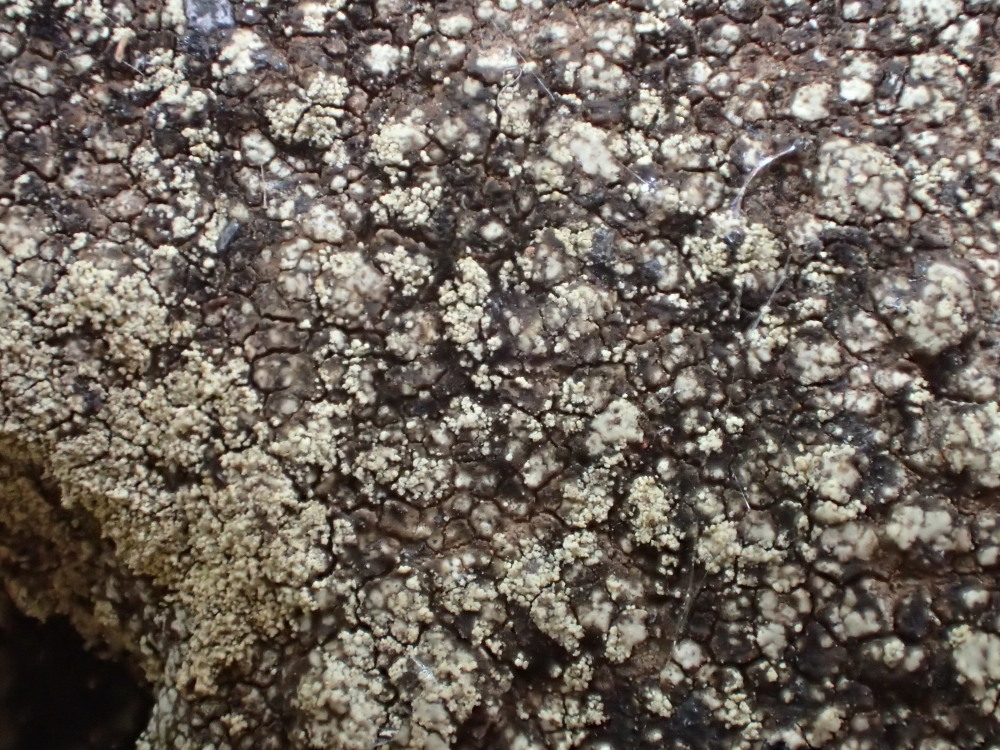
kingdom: Fungi
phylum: Ascomycota
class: Lecanoromycetes
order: Lecanorales
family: Lecanoraceae
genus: Lecidella
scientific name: Lecidella scabra
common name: skurvet skivelav
